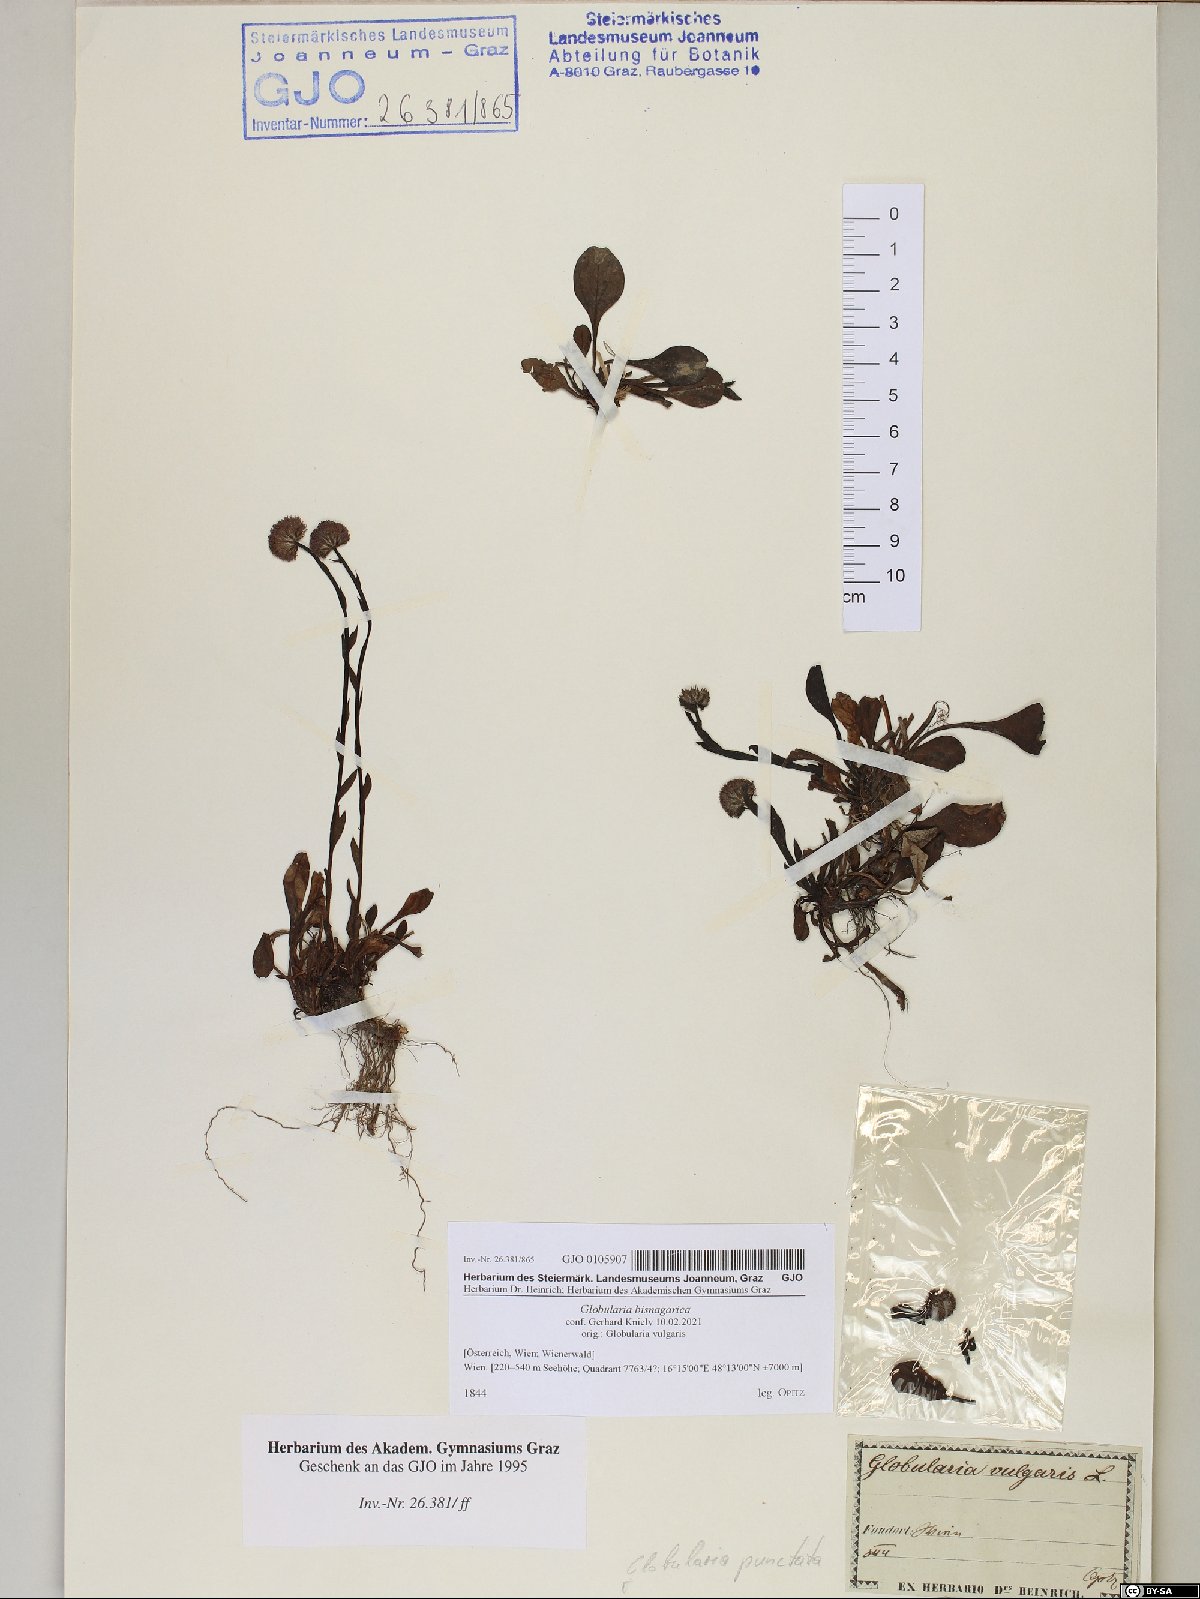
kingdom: Plantae
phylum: Tracheophyta
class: Magnoliopsida
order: Lamiales
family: Plantaginaceae
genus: Globularia
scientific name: Globularia bisnagarica
